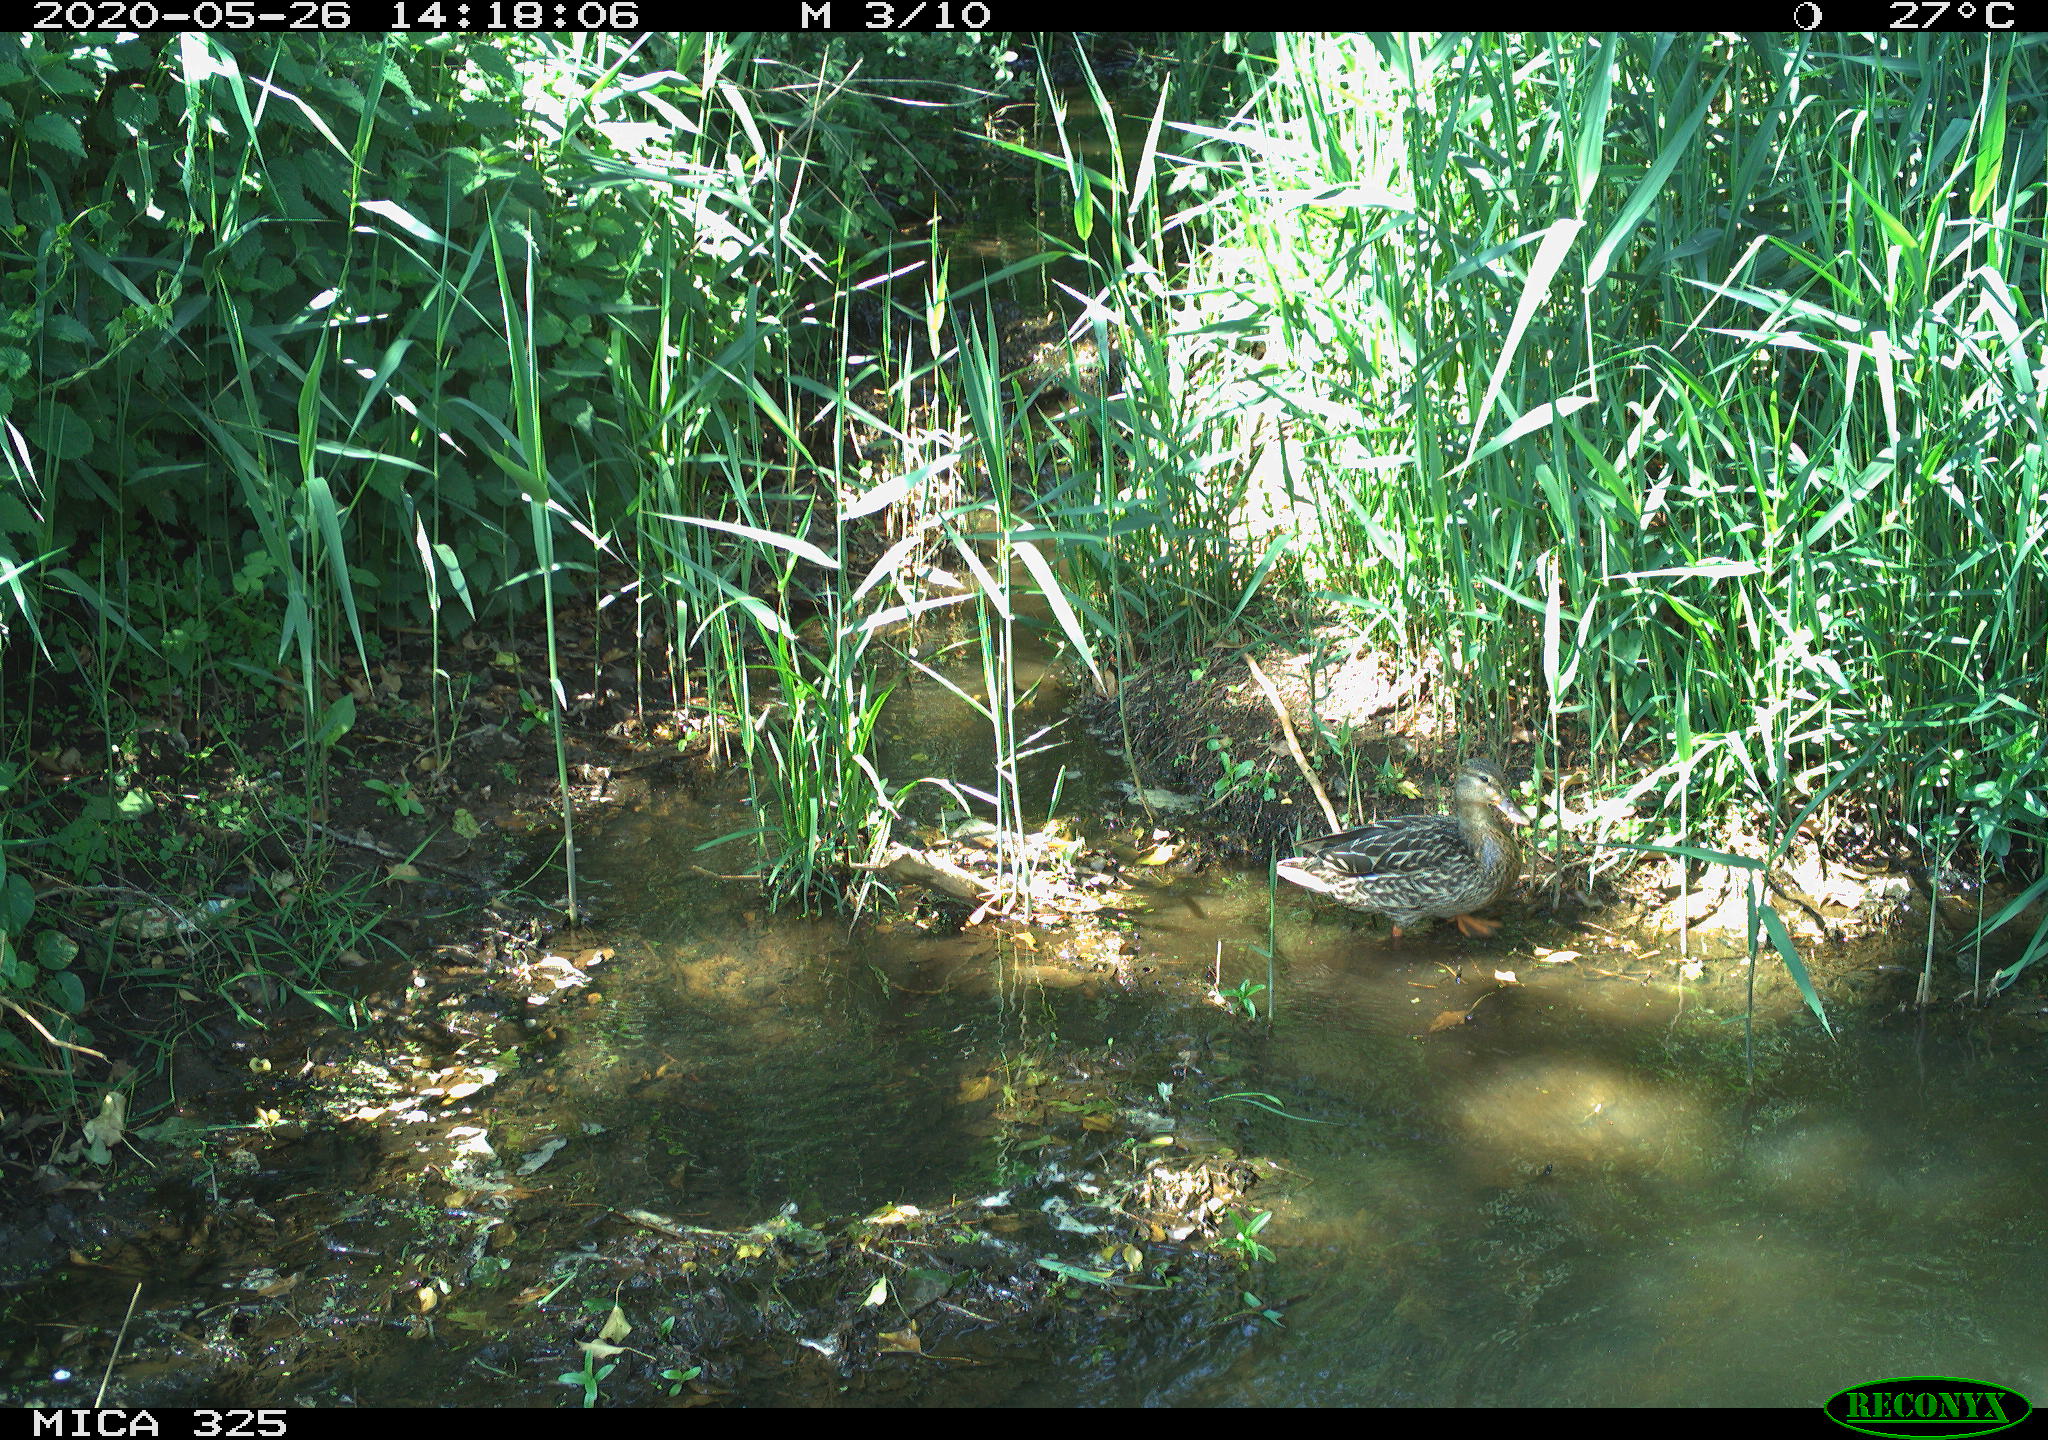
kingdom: Animalia
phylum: Chordata
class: Aves
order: Anseriformes
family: Anatidae
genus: Anas
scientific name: Anas platyrhynchos
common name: Mallard
